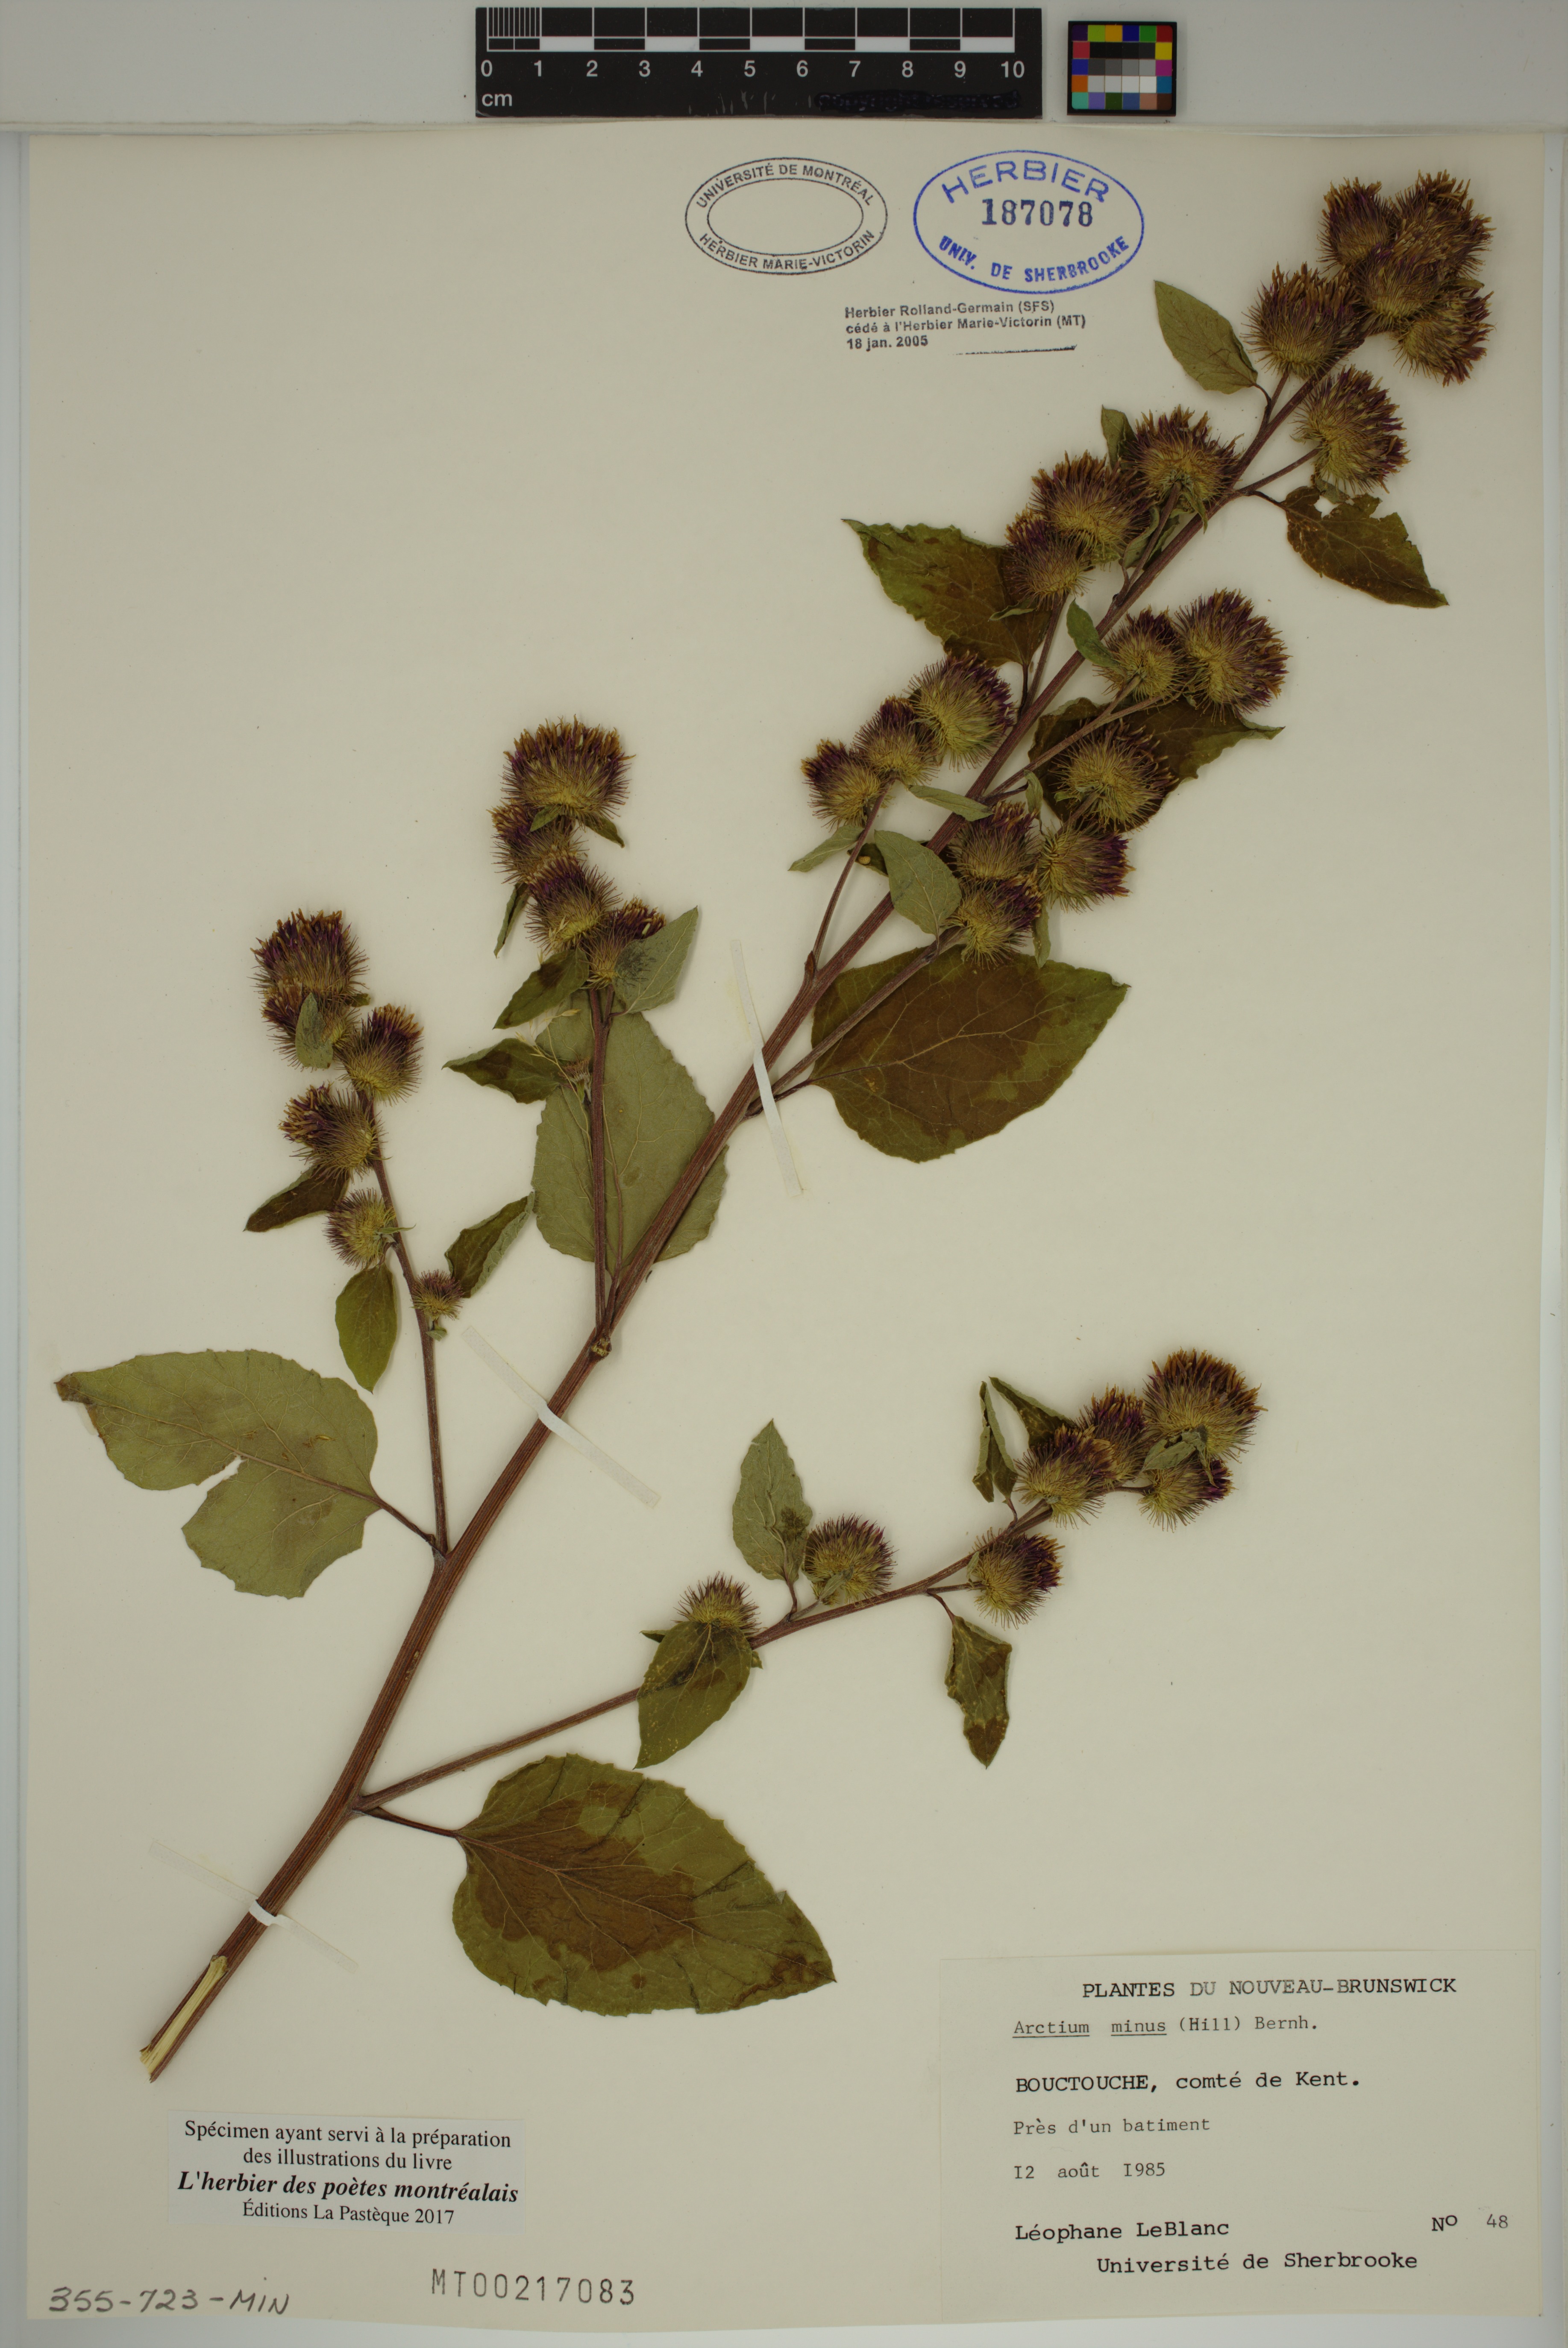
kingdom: Plantae
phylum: Tracheophyta
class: Magnoliopsida
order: Asterales
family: Asteraceae
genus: Arctium
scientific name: Arctium minus
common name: Lesser burdock
